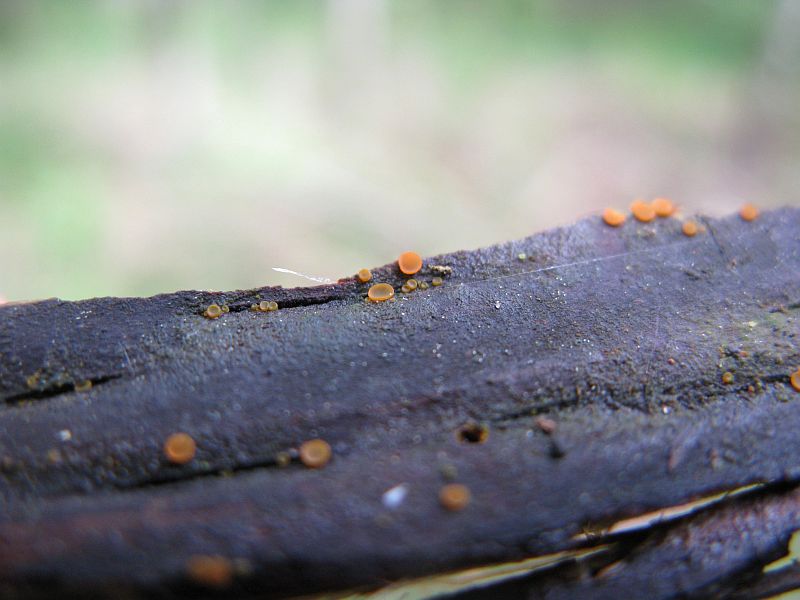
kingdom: Fungi
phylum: Ascomycota
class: Orbiliomycetes
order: Orbiliales
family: Orbiliaceae
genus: Orbilia
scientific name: Orbilia xanthostigma
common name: krumsporet voksskive
